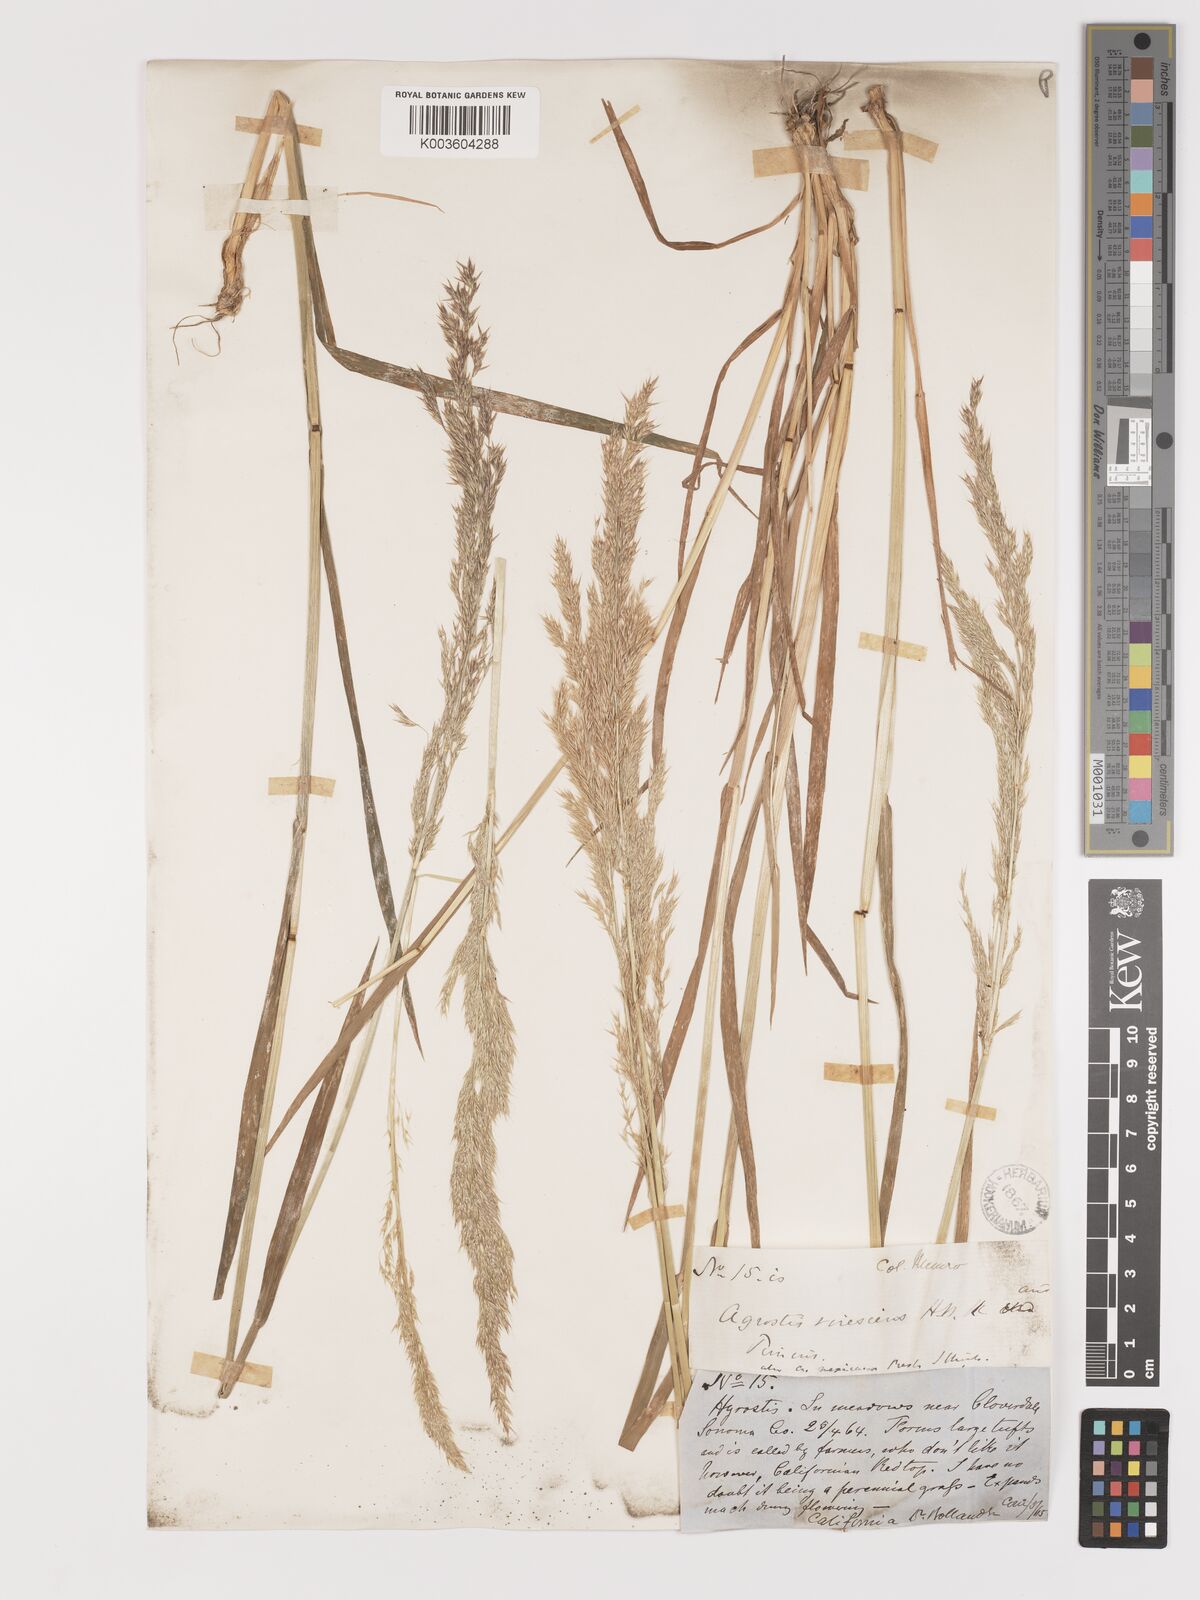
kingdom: Plantae
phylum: Tracheophyta
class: Liliopsida
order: Poales
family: Poaceae
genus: Agrostis
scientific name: Agrostis exarata
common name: Spike bent
